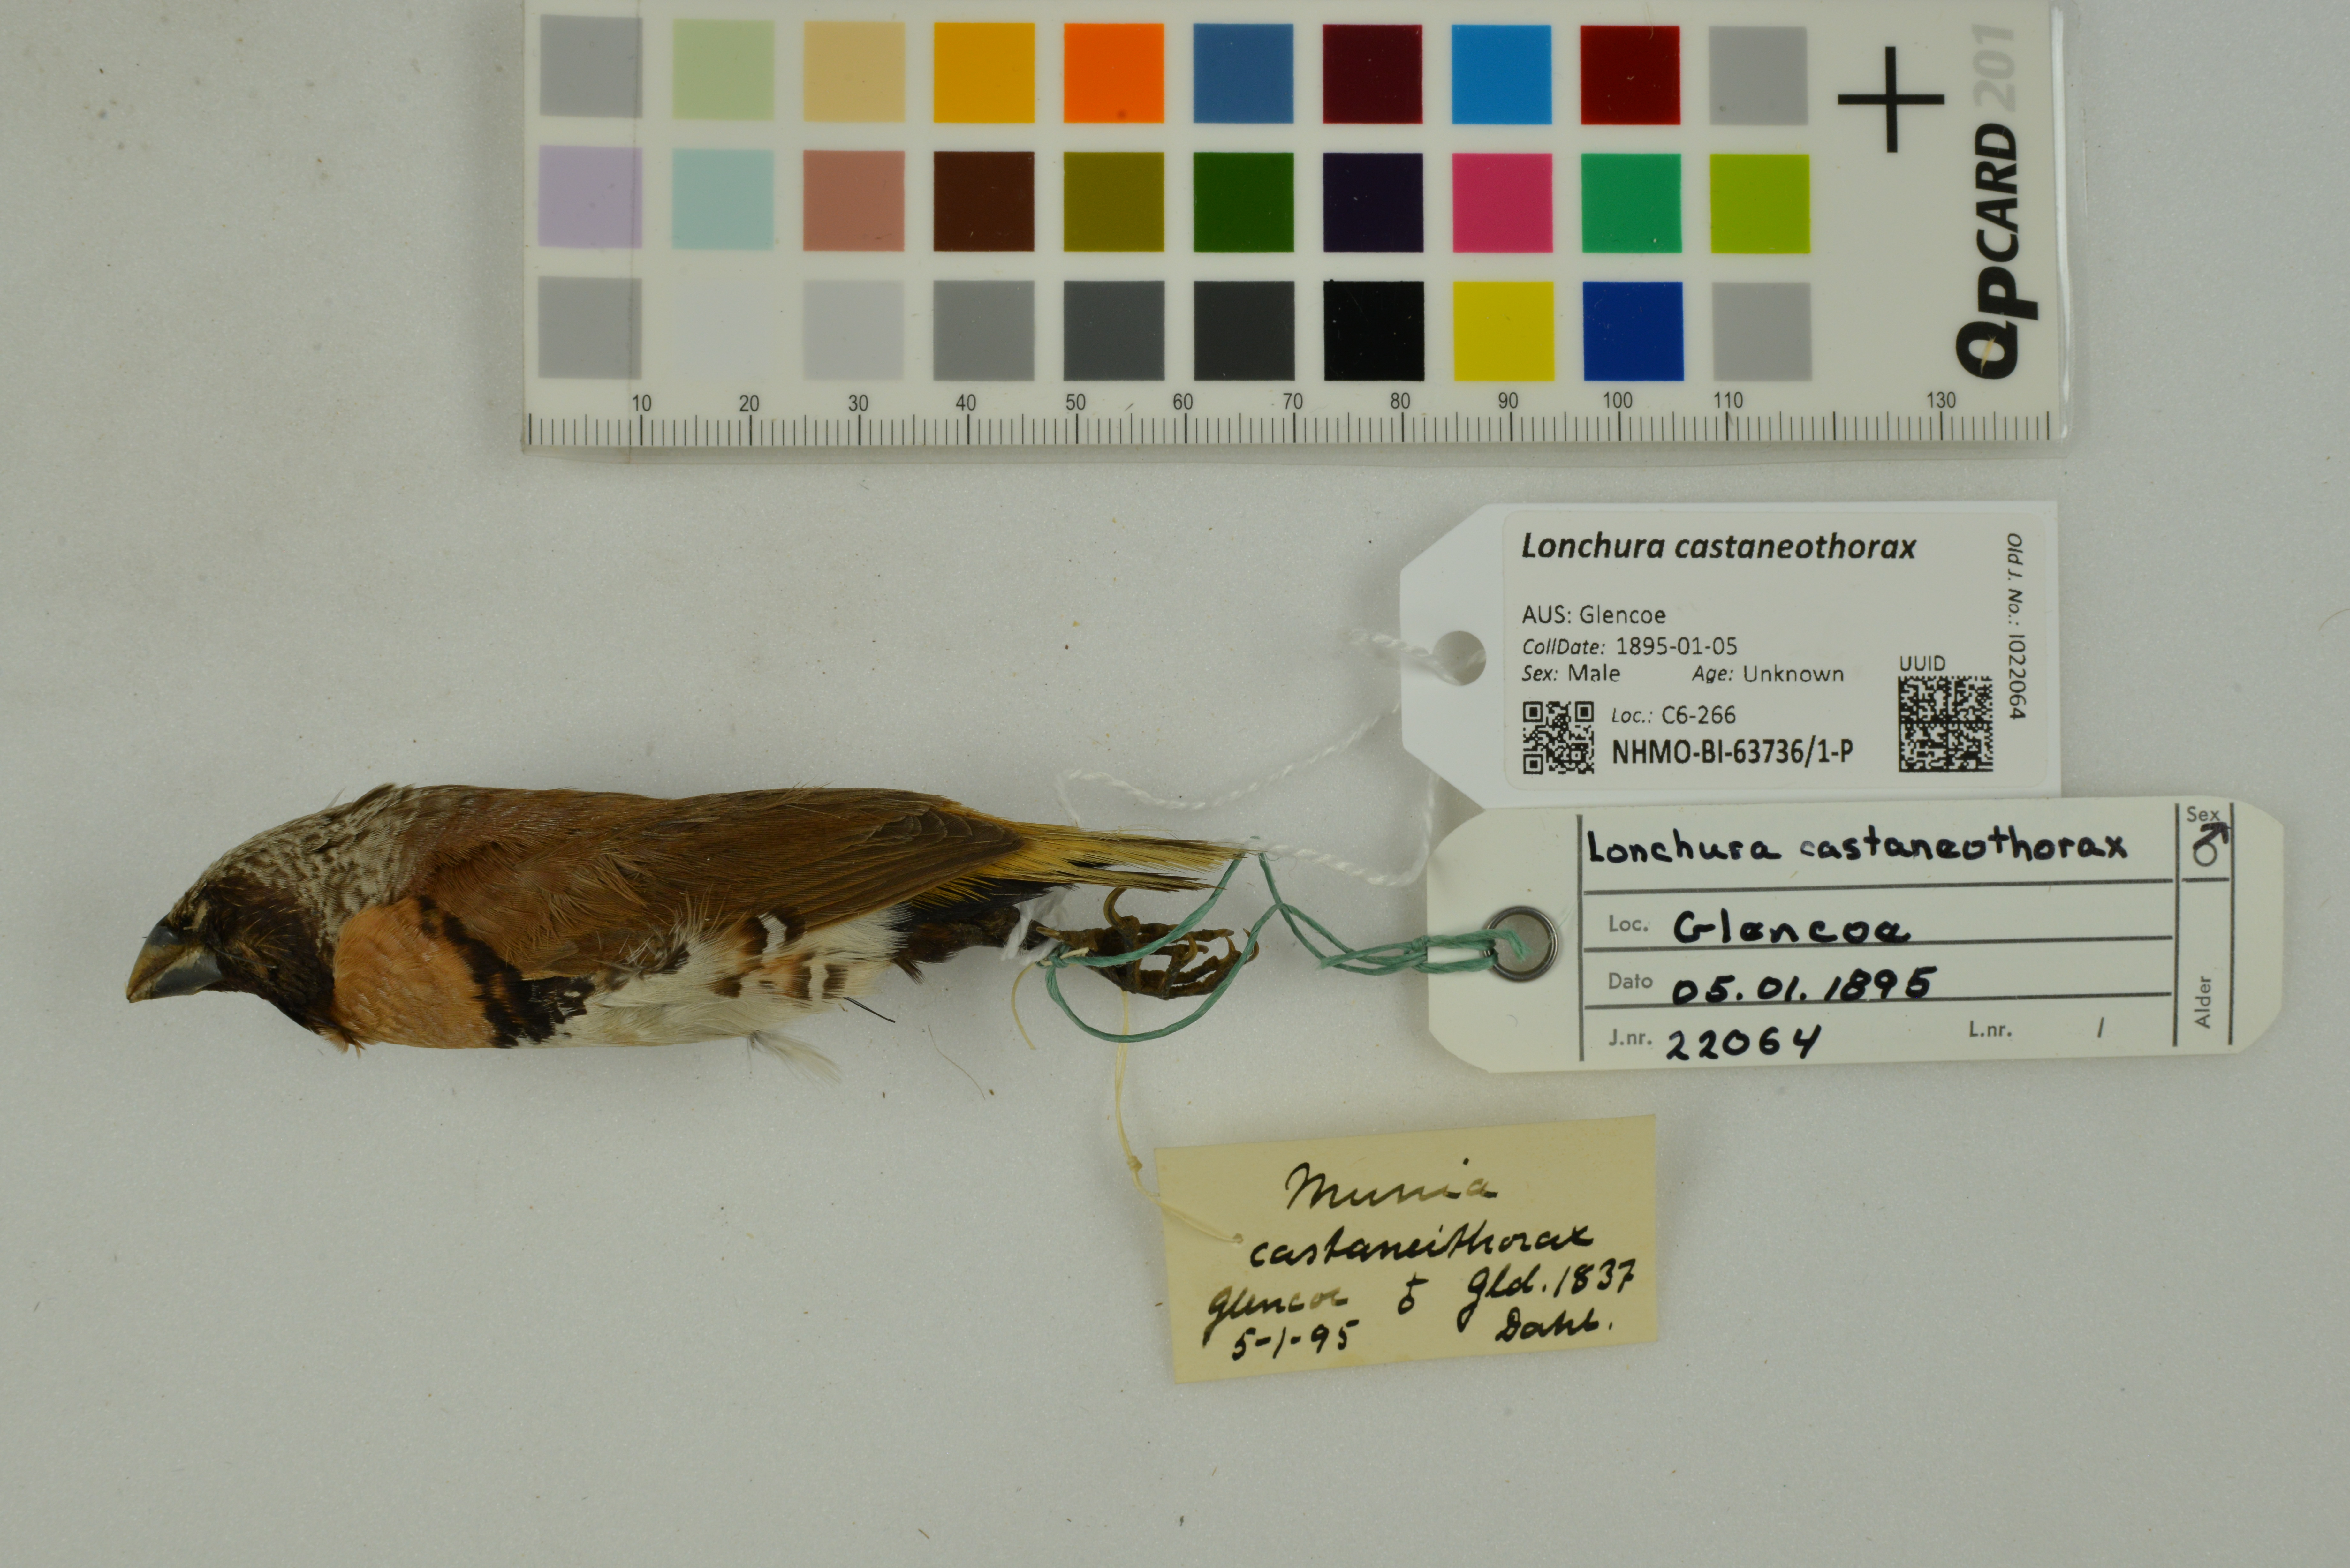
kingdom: Animalia
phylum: Chordata
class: Aves
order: Passeriformes
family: Estrildidae
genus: Lonchura
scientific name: Lonchura castaneothorax
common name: Chestnut-breasted mannikin
